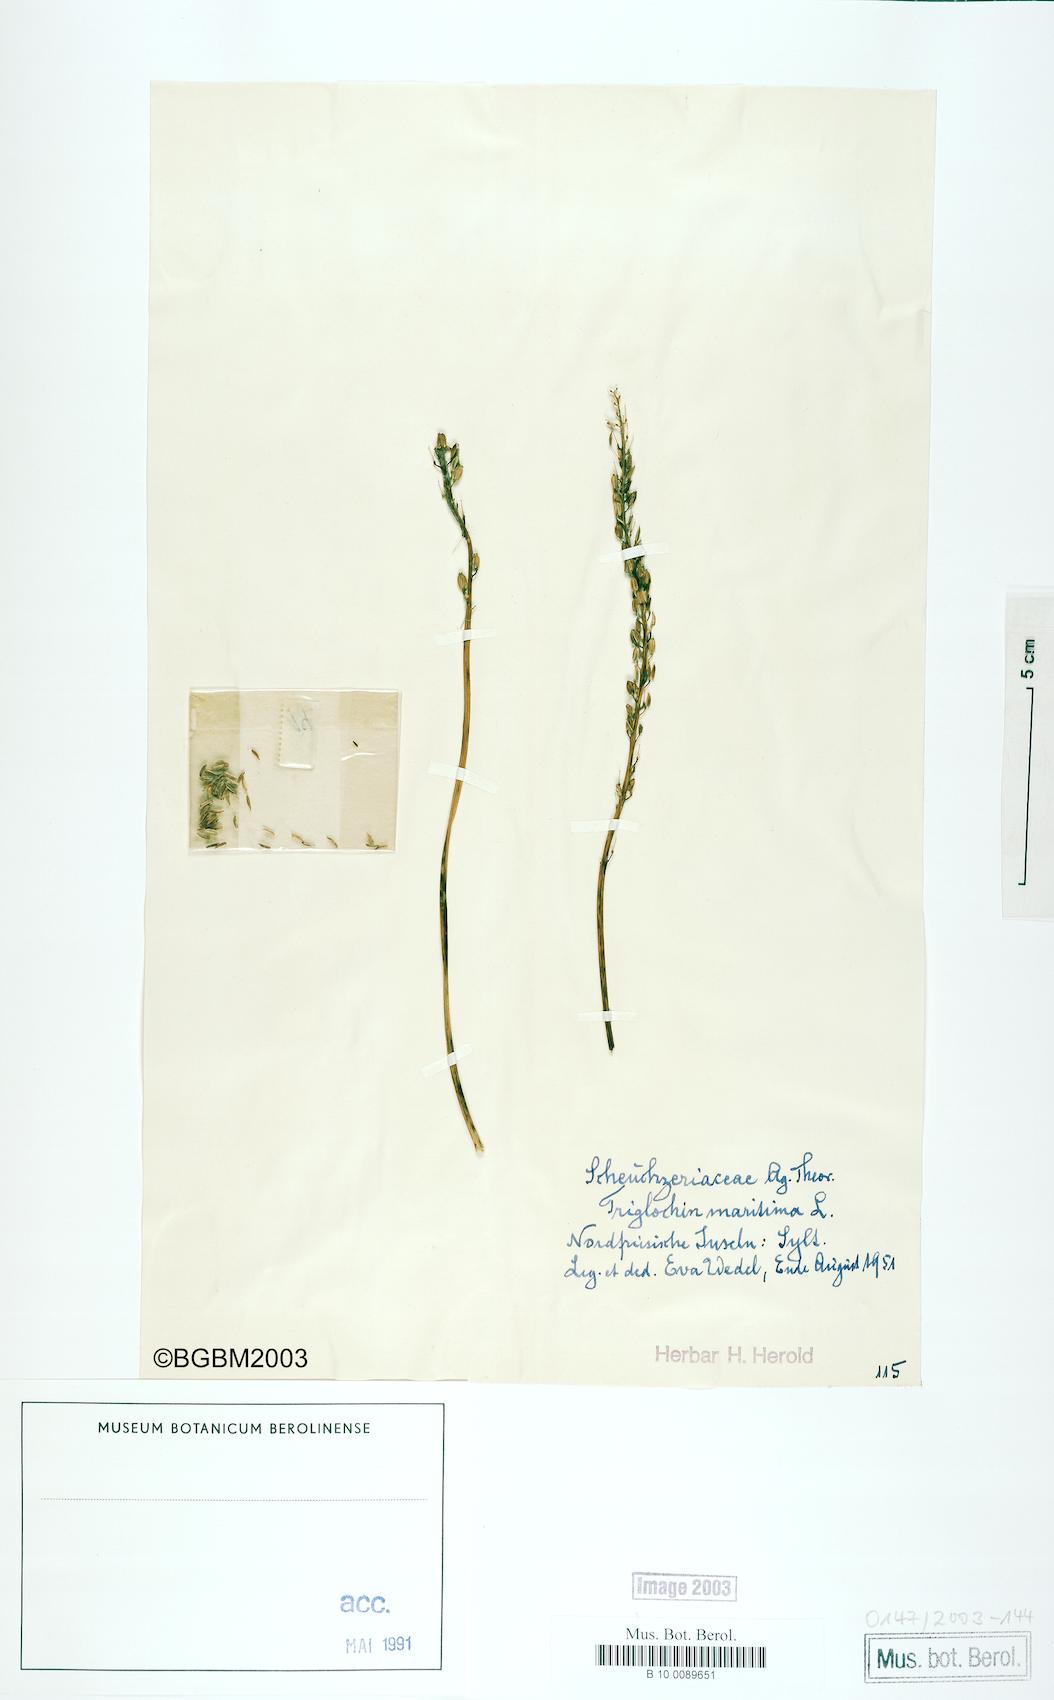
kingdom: Plantae
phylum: Tracheophyta
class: Liliopsida
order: Alismatales
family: Juncaginaceae
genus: Triglochin
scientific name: Triglochin maritima
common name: Sea arrowgrass
